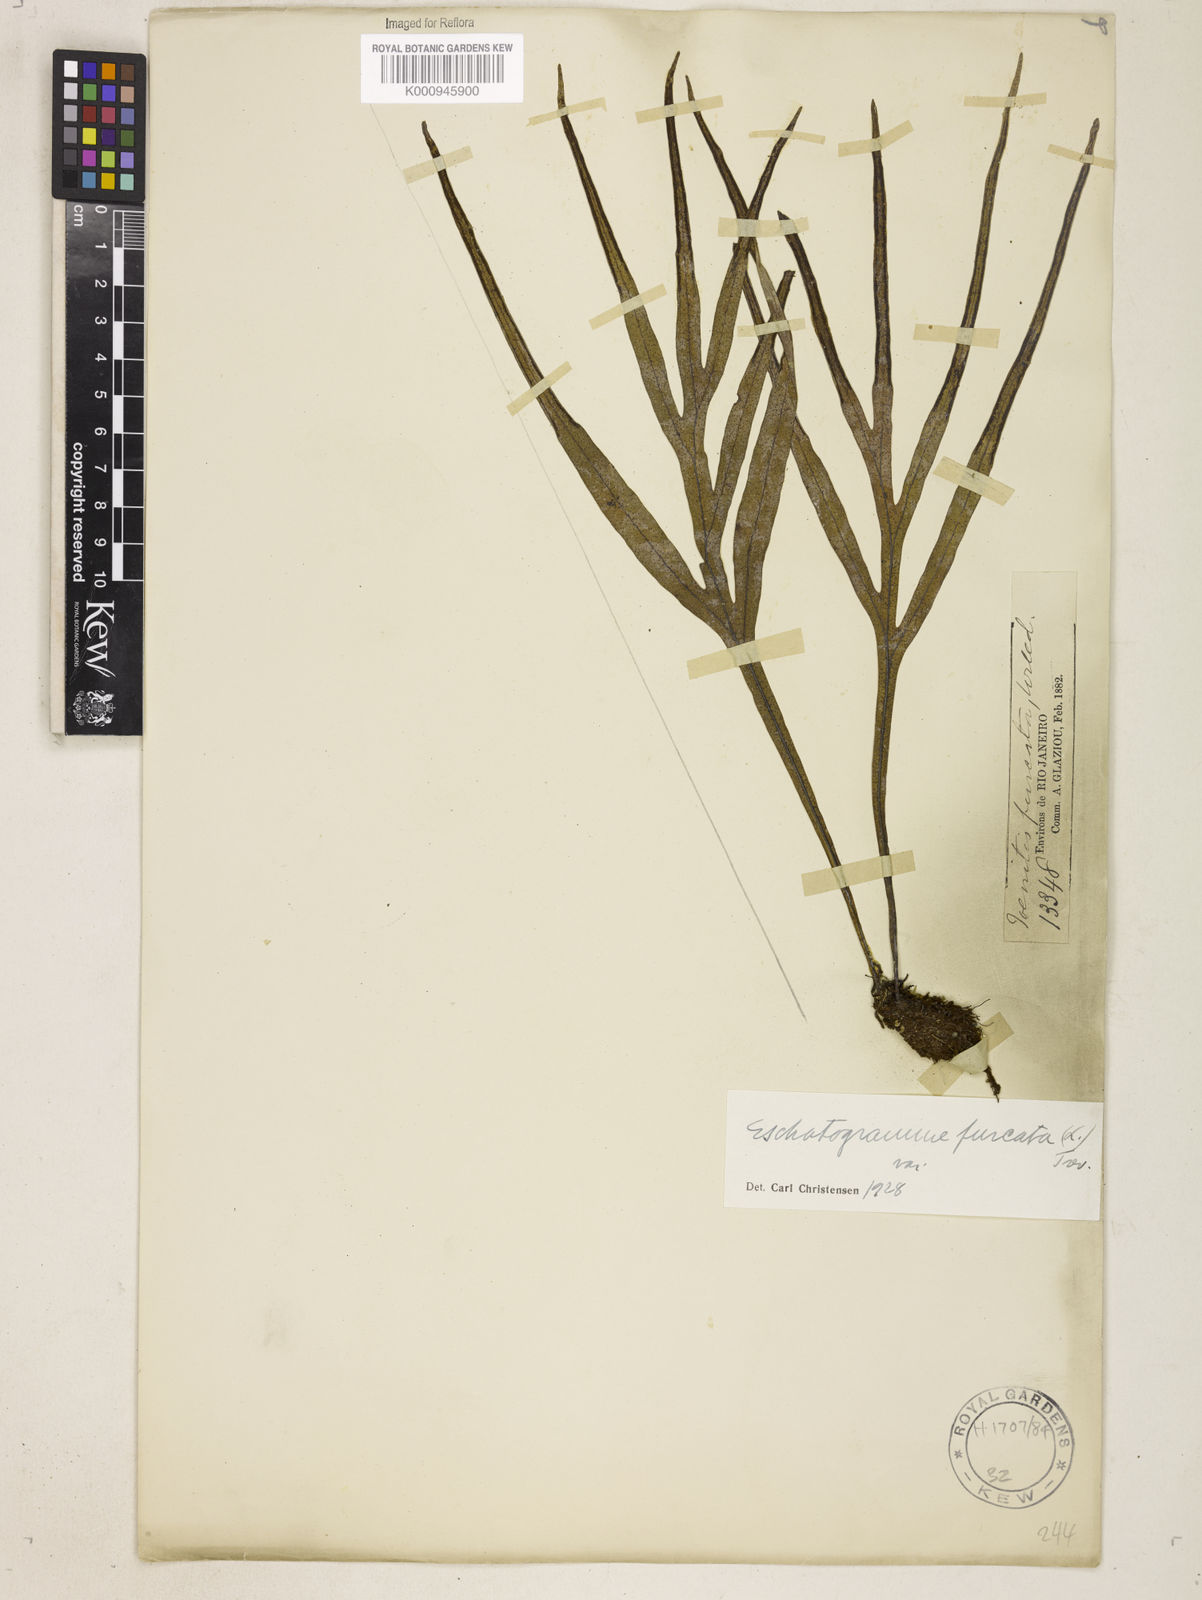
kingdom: Plantae
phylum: Tracheophyta
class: Polypodiopsida
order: Polypodiales
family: Polypodiaceae
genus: Pleopeltis
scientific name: Pleopeltis desvauxii
